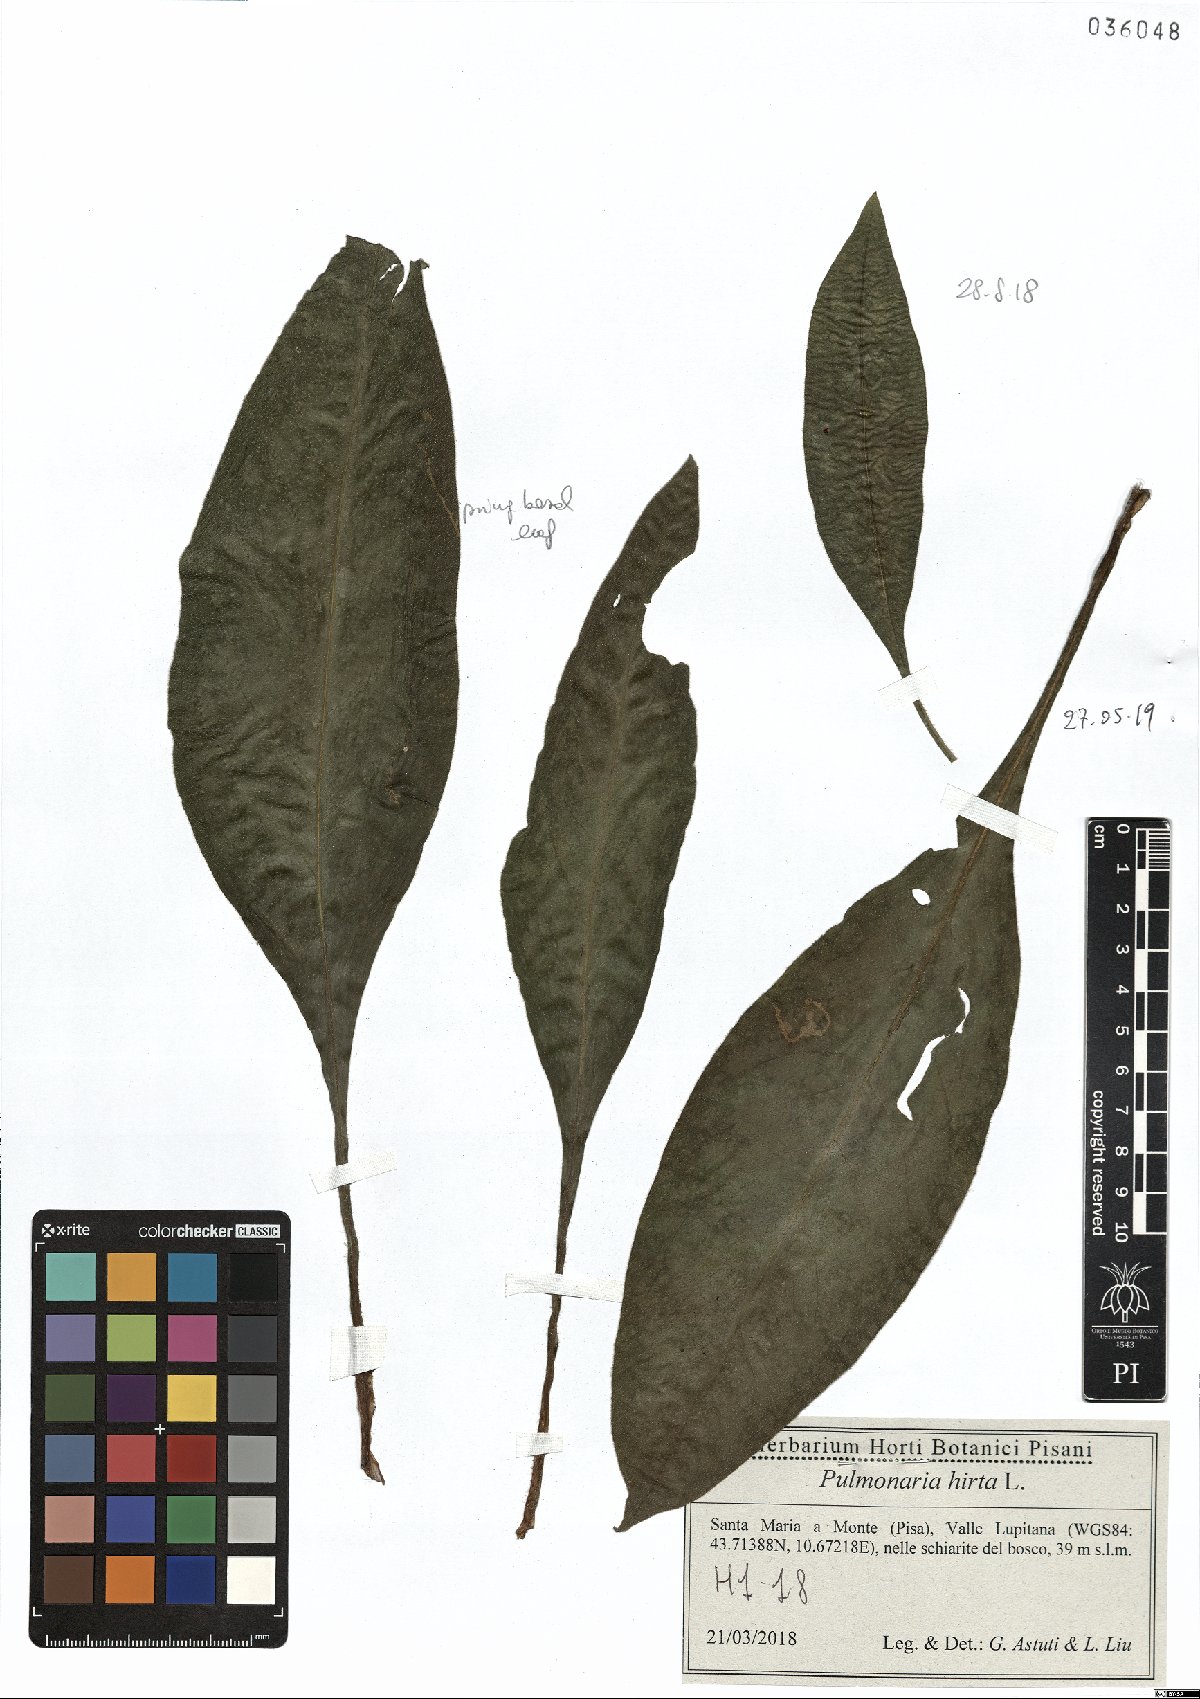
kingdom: Plantae
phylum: Tracheophyta
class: Magnoliopsida
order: Boraginales
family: Boraginaceae
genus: Pulmonaria
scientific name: Pulmonaria hirta
